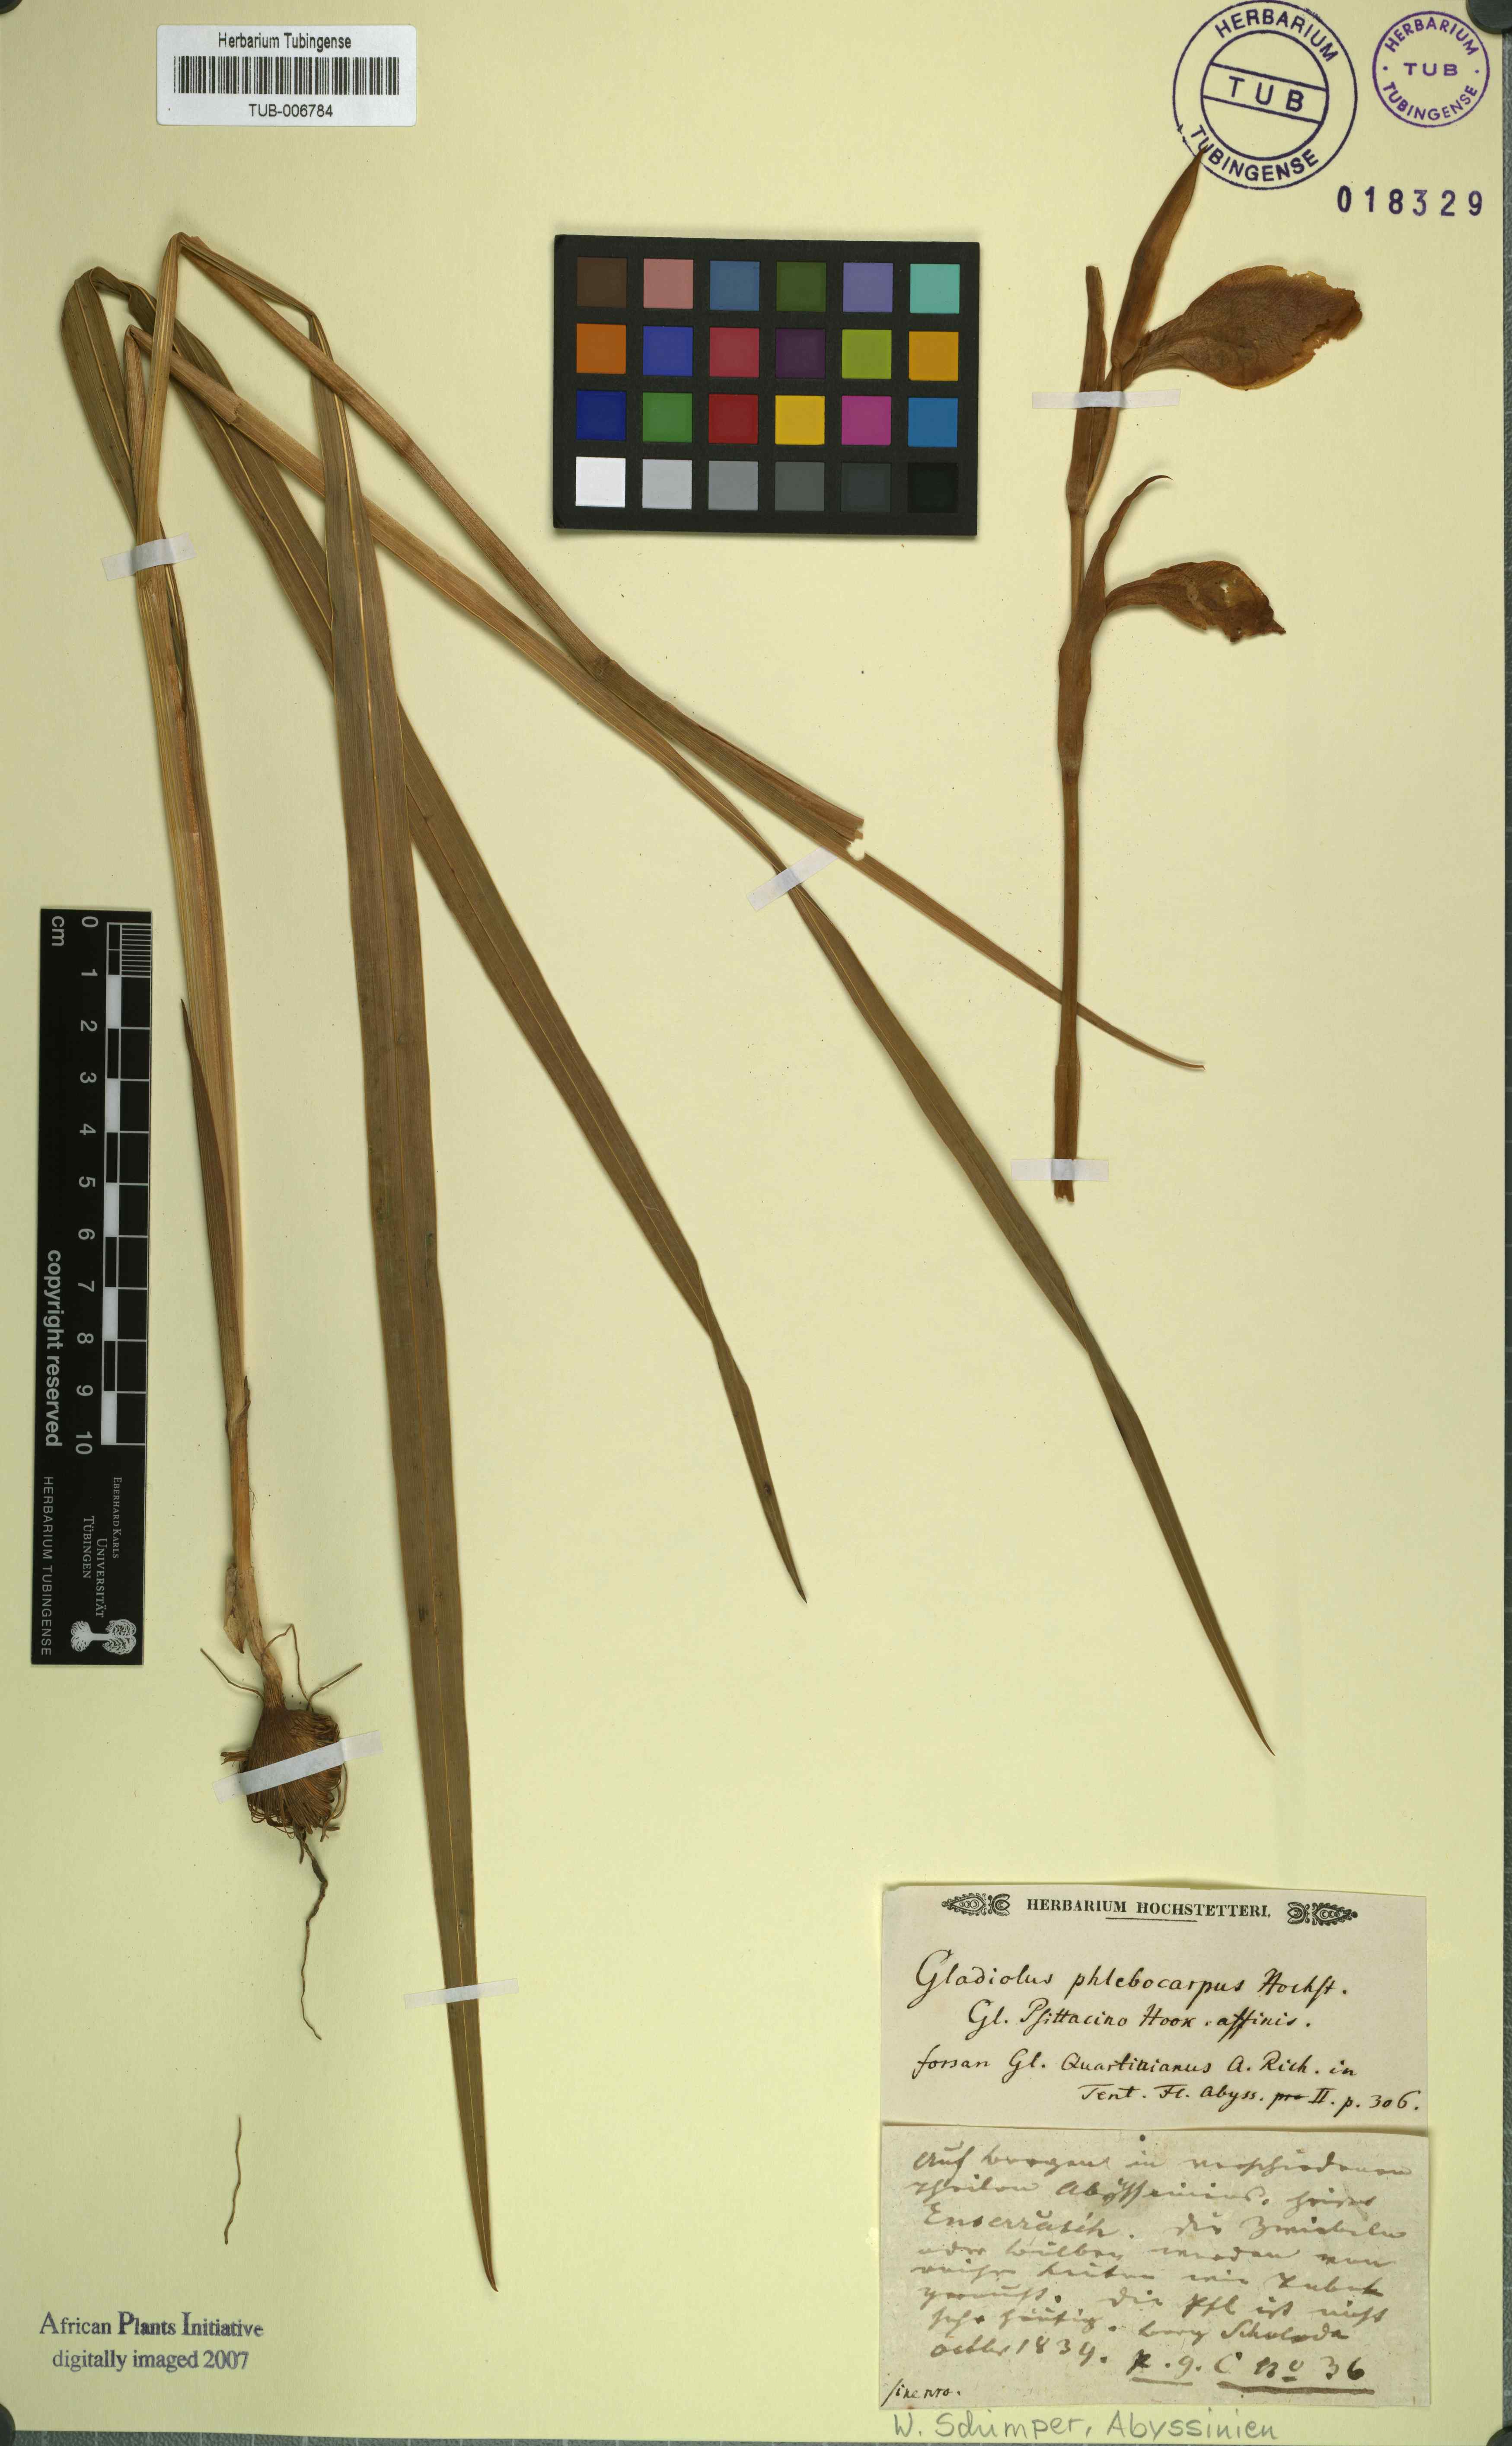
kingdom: Plantae
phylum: Tracheophyta
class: Liliopsida
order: Asparagales
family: Iridaceae
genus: Gladiolus
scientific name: Gladiolus
